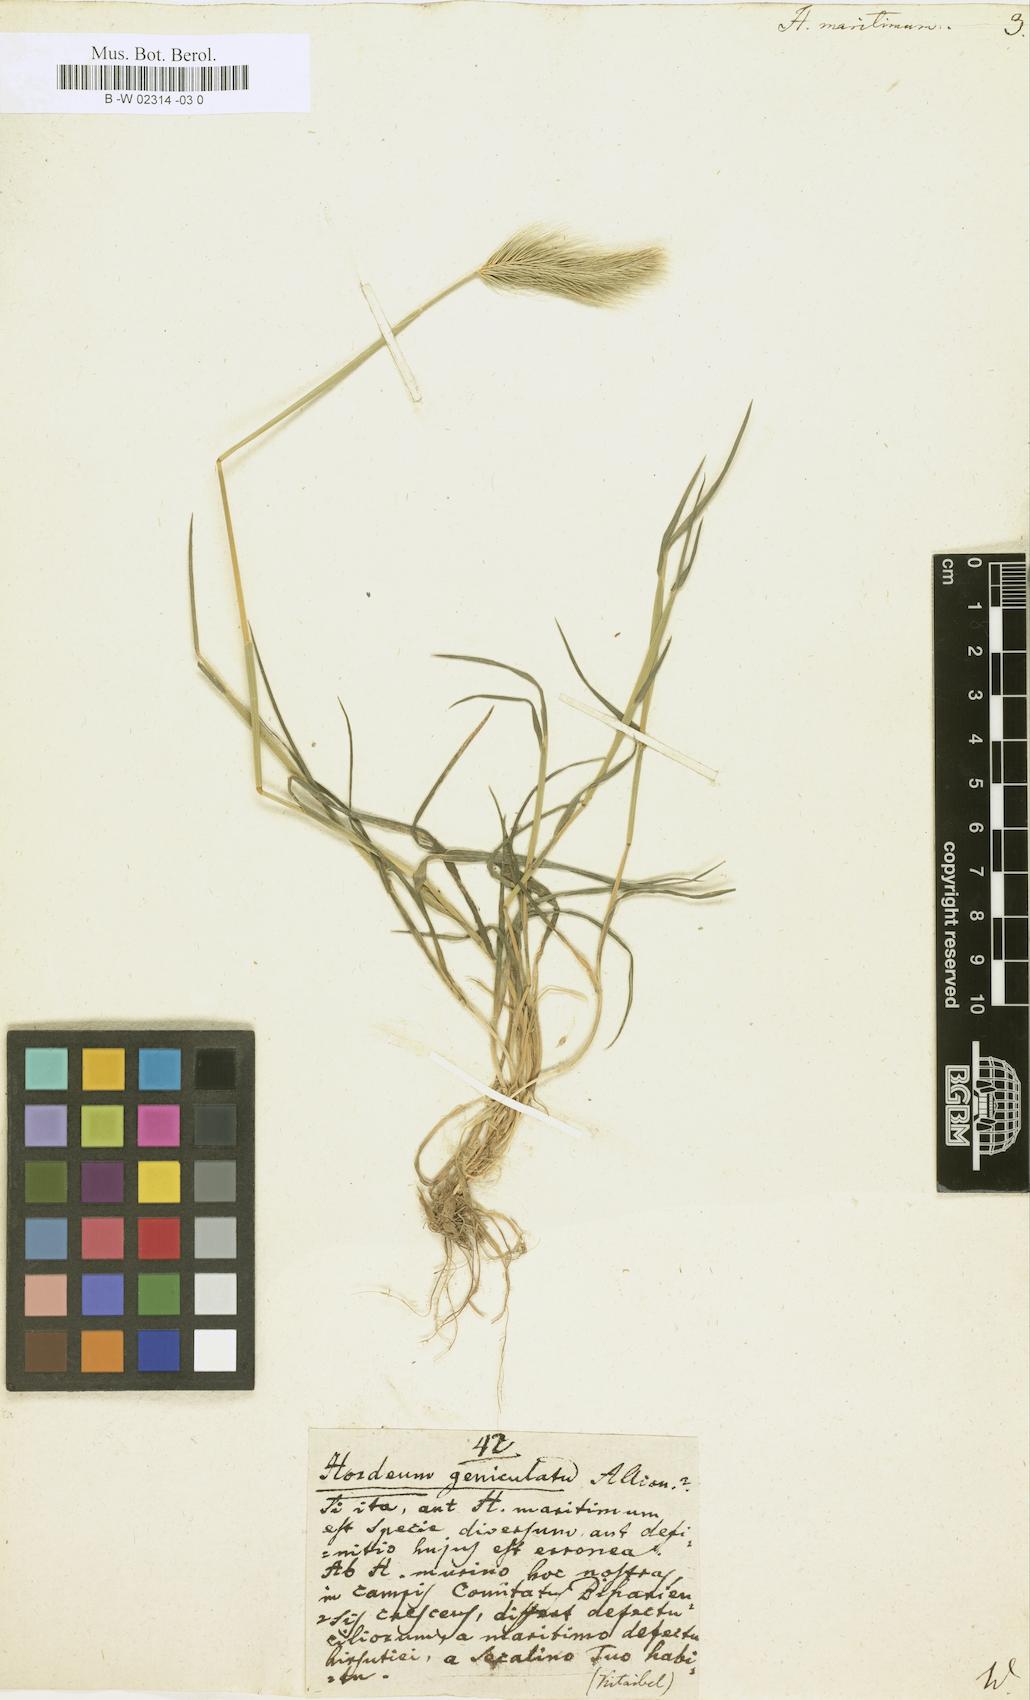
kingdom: Plantae
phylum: Tracheophyta
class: Liliopsida
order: Poales
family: Poaceae
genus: Hordeum
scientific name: Hordeum maritimum
